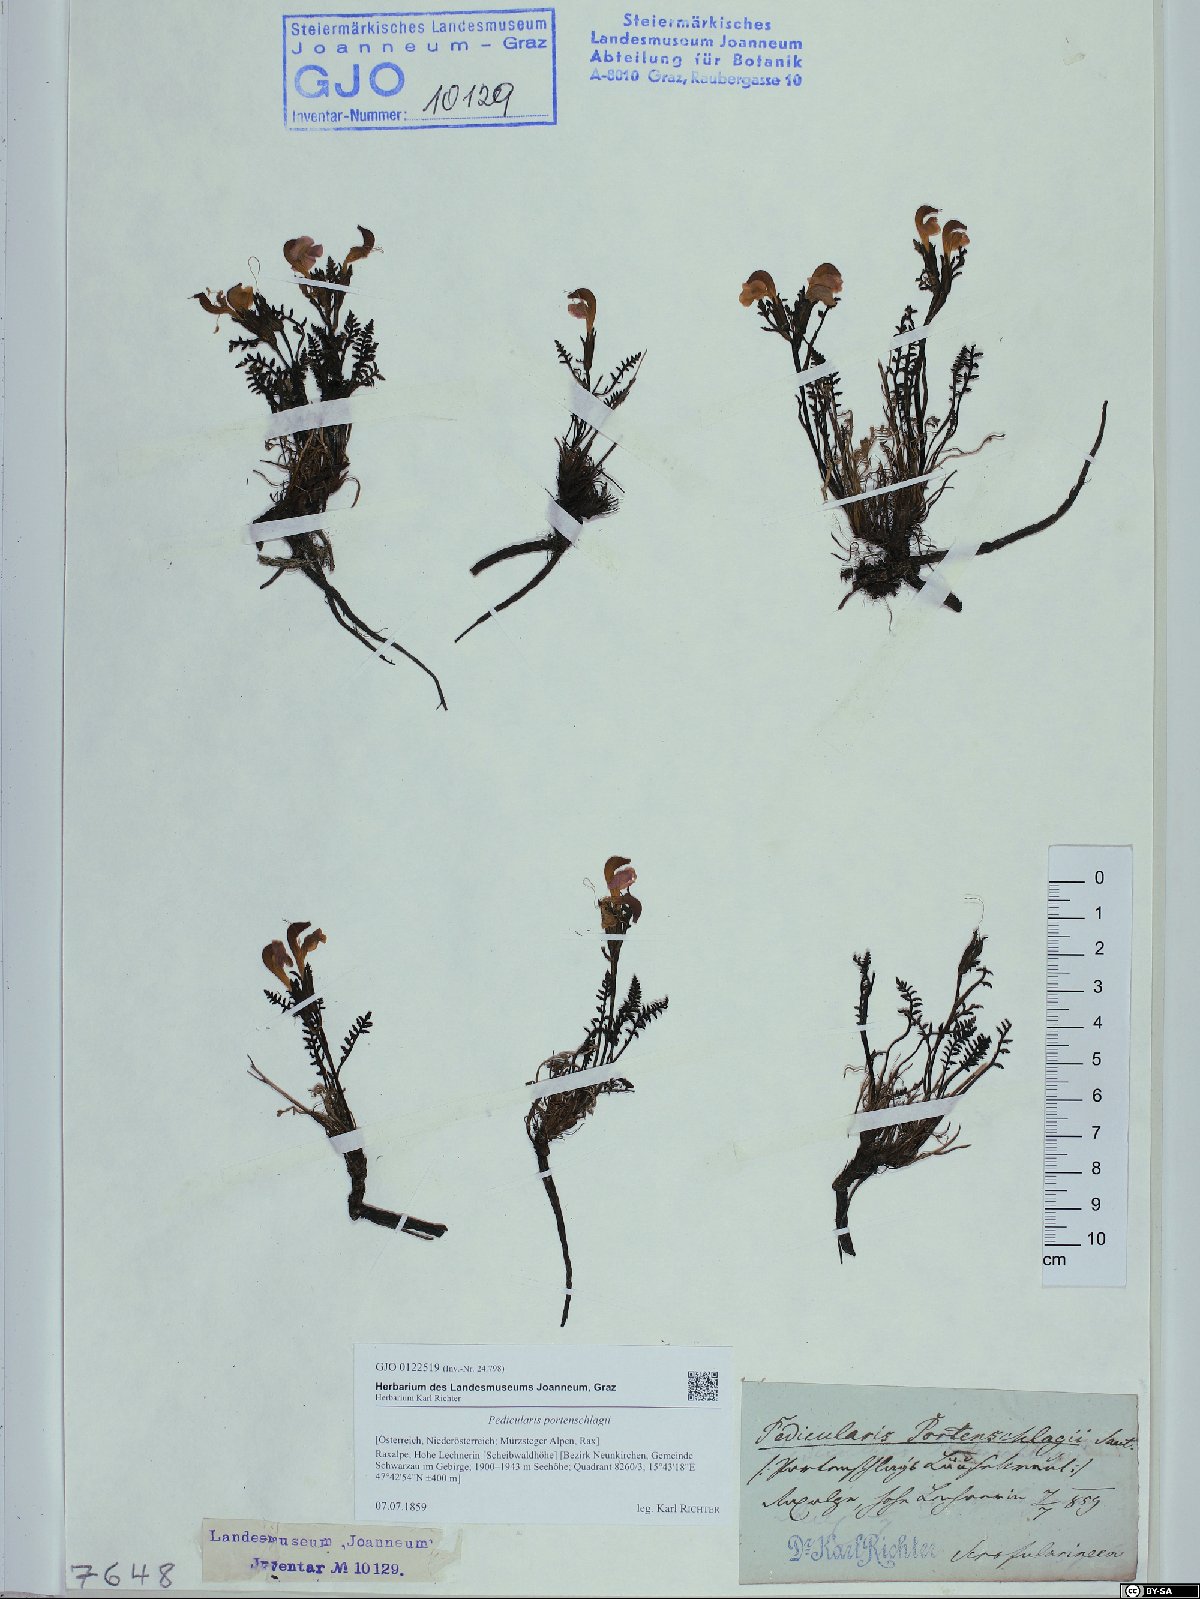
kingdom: Plantae
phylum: Tracheophyta
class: Magnoliopsida
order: Lamiales
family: Orobanchaceae
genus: Pedicularis
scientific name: Pedicularis portenschlagii
